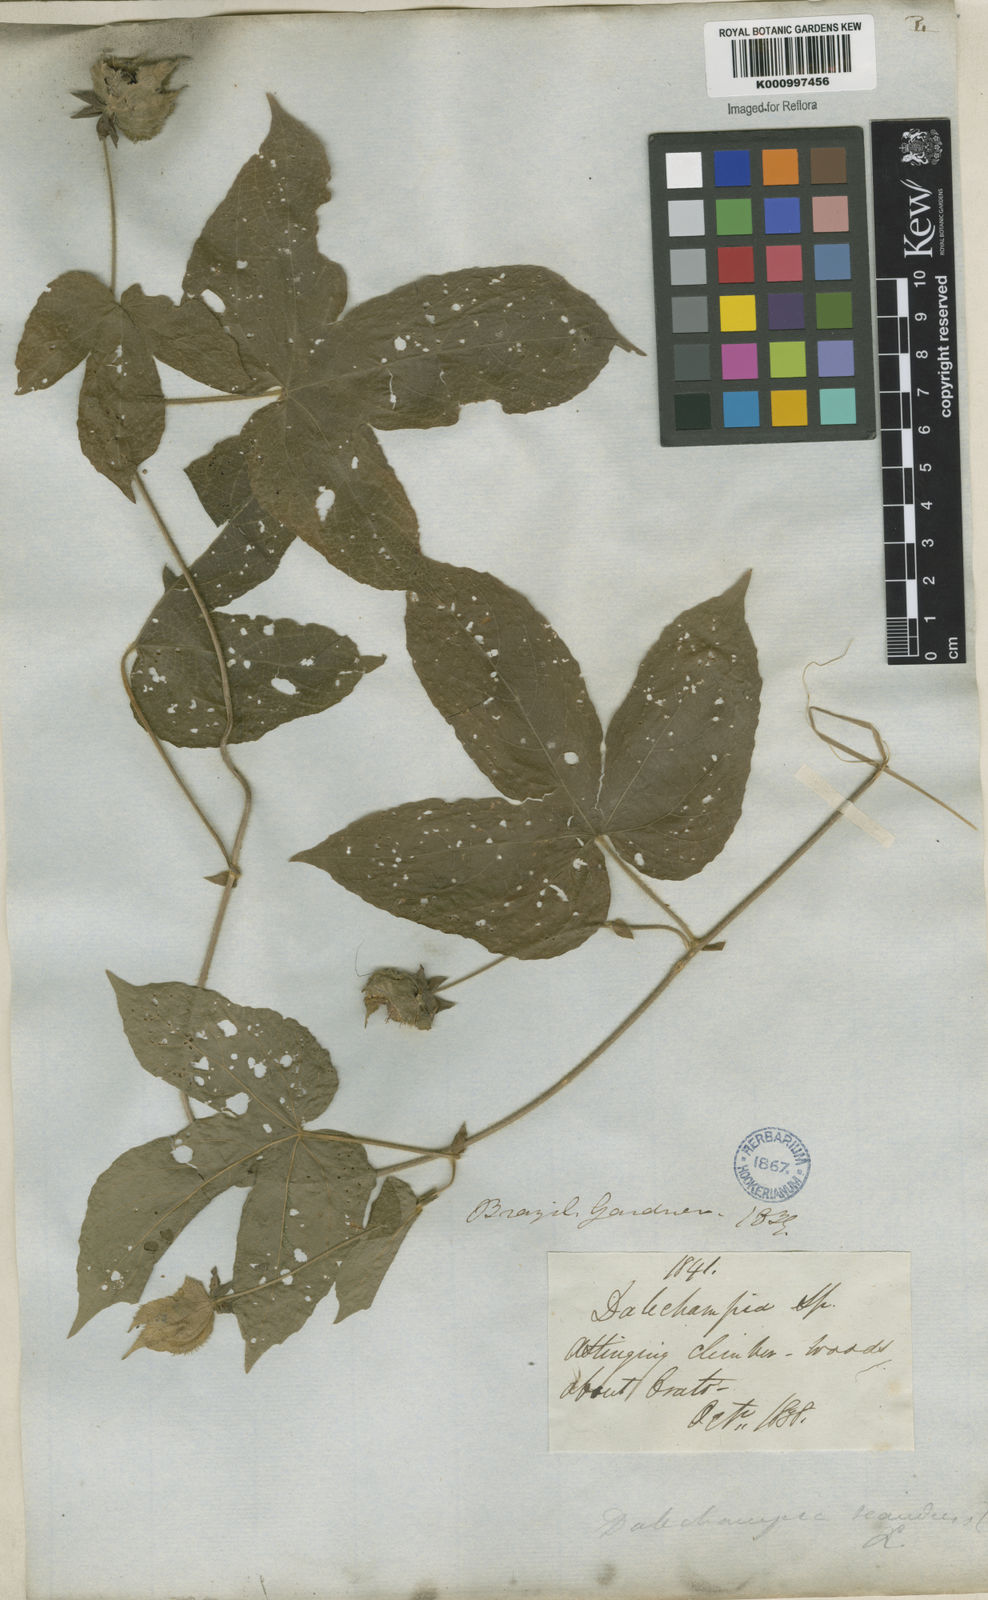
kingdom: Plantae
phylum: Tracheophyta
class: Magnoliopsida
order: Malpighiales
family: Euphorbiaceae
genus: Dalechampia
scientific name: Dalechampia scandens
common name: Spurgecreeper
